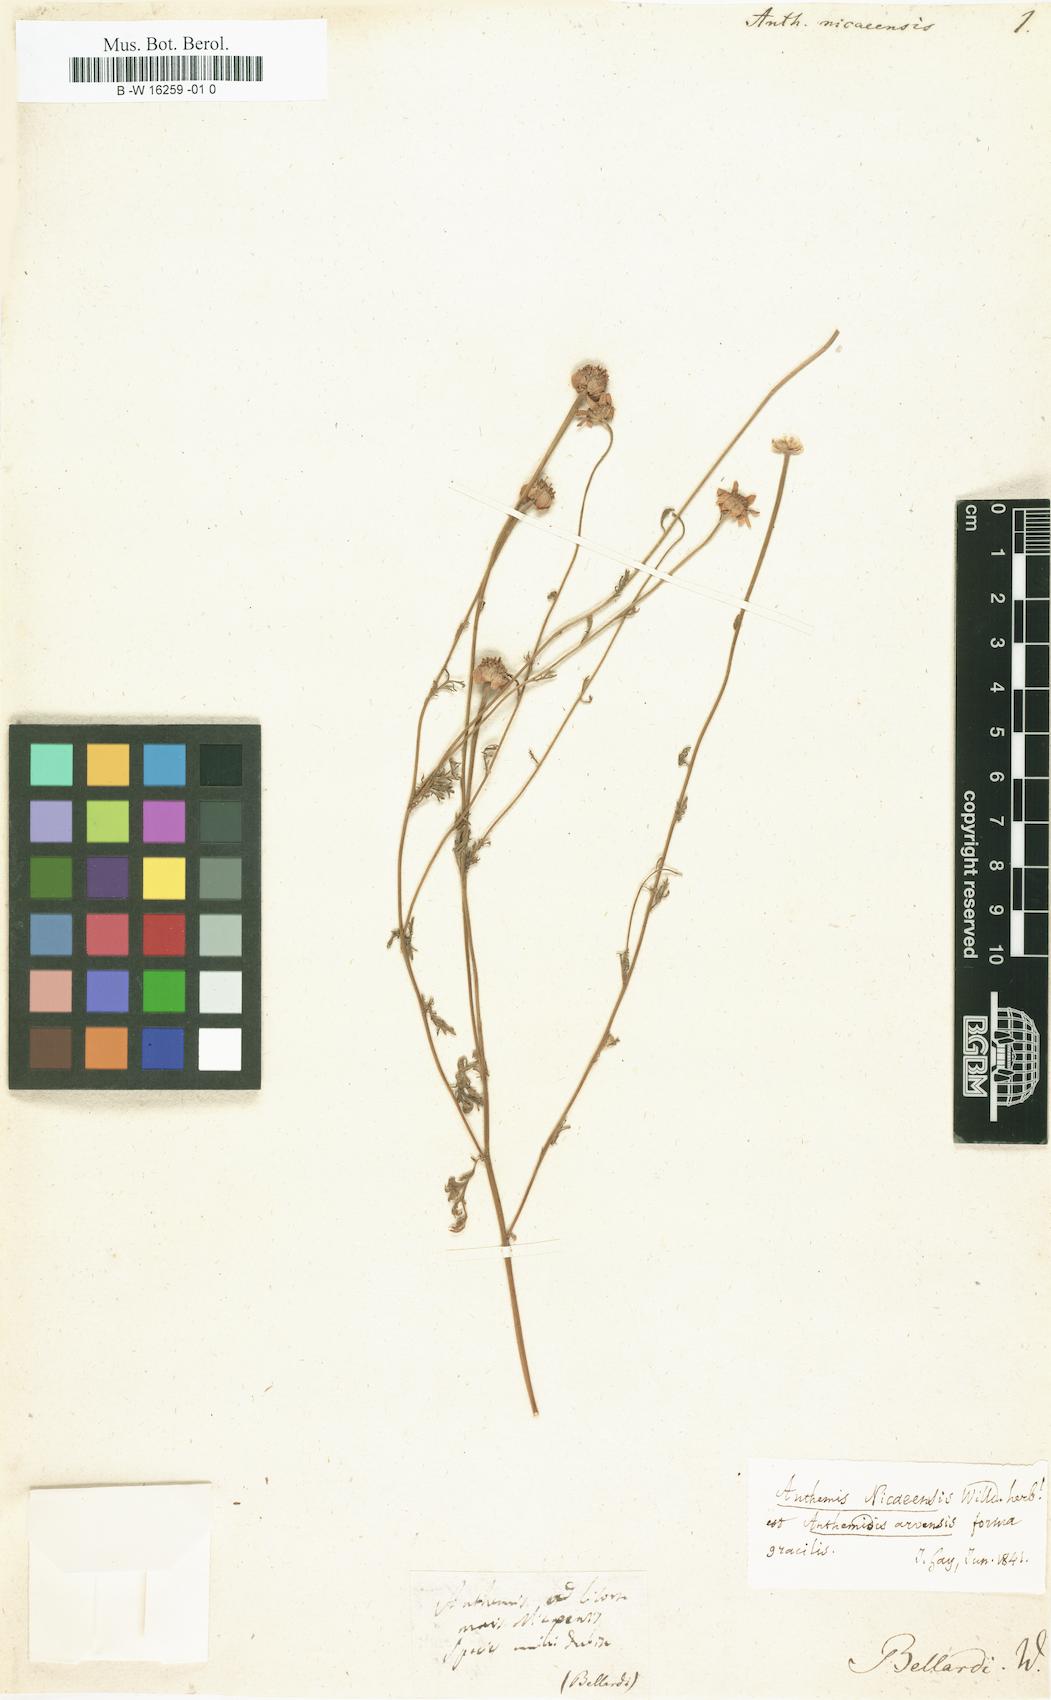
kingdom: Plantae
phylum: Tracheophyta
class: Magnoliopsida
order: Asterales
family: Asteraceae
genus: Anthemis
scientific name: Anthemis arvensis
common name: Corn chamomile
